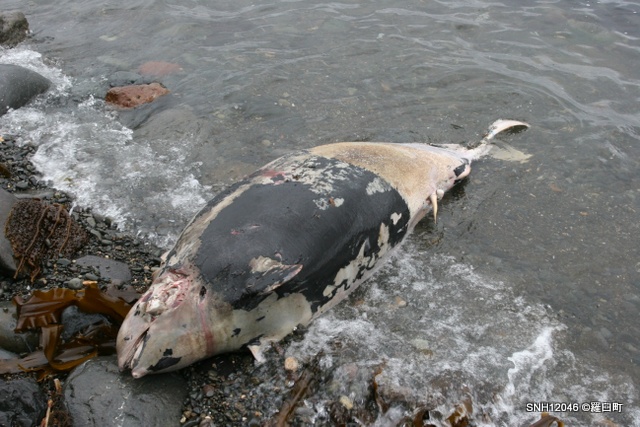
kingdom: Animalia
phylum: Chordata
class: Mammalia
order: Cetacea
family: Phocoenidae
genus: Phocoenoides
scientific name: Phocoenoides dalli
